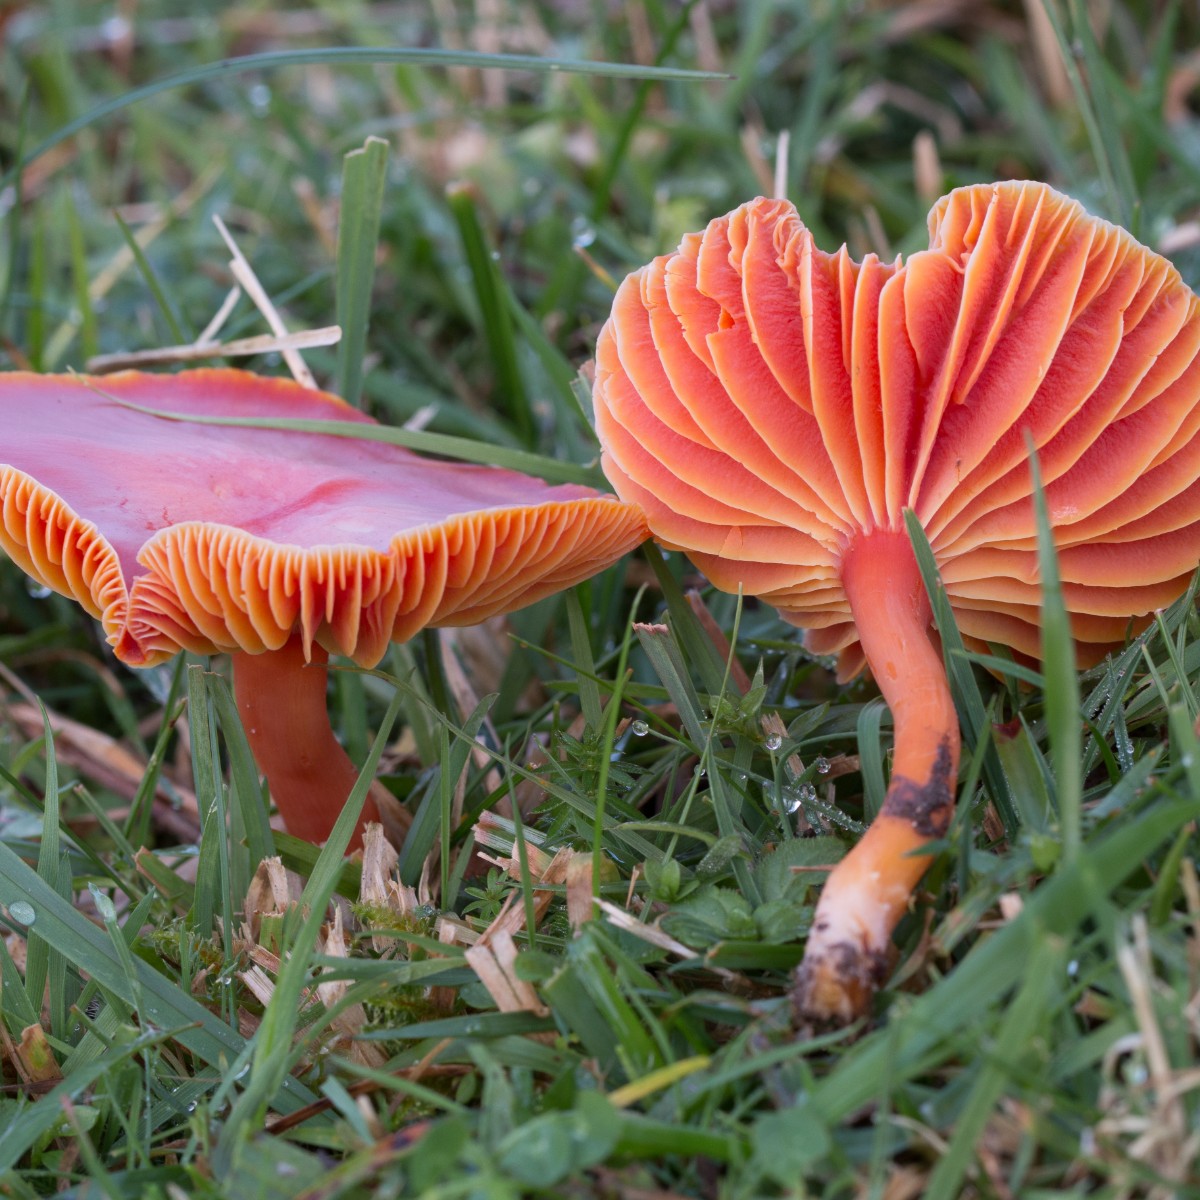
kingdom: Fungi
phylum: Basidiomycota
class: Agaricomycetes
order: Agaricales
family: Hygrophoraceae
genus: Hygrocybe
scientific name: Hygrocybe coccinea
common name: cinnober-vokshat
